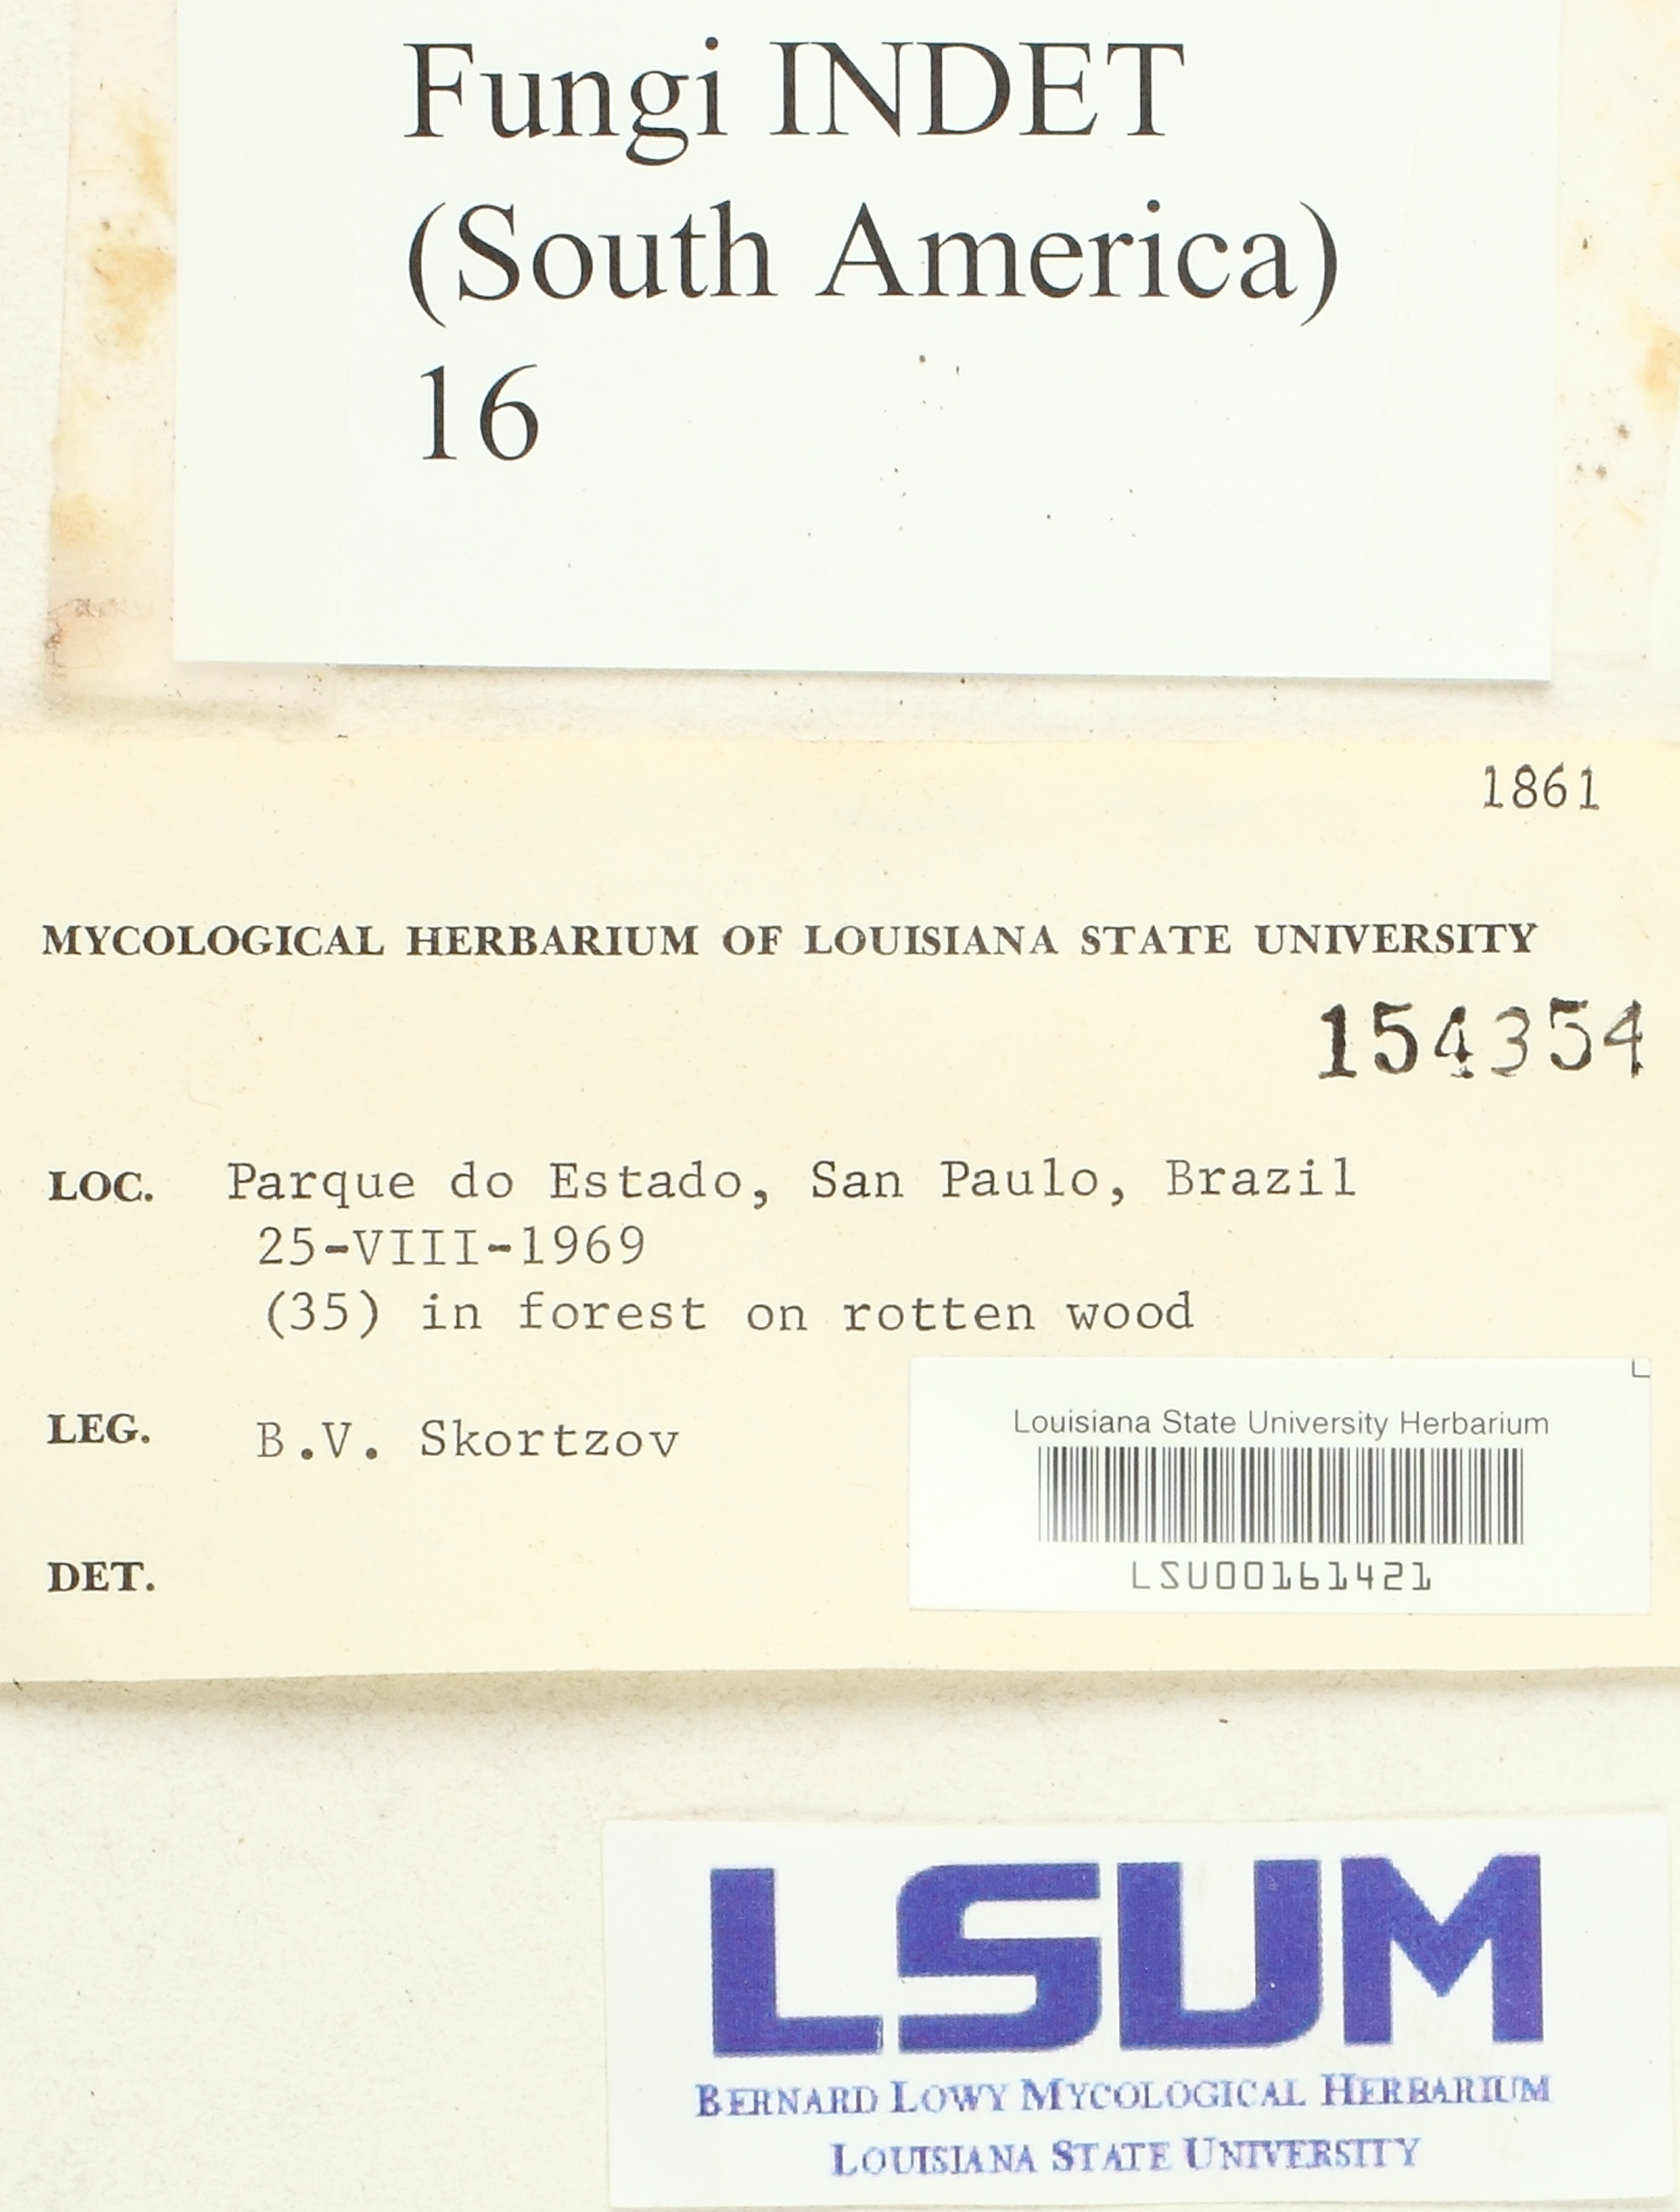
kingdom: Fungi
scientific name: Fungi
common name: Fungi
